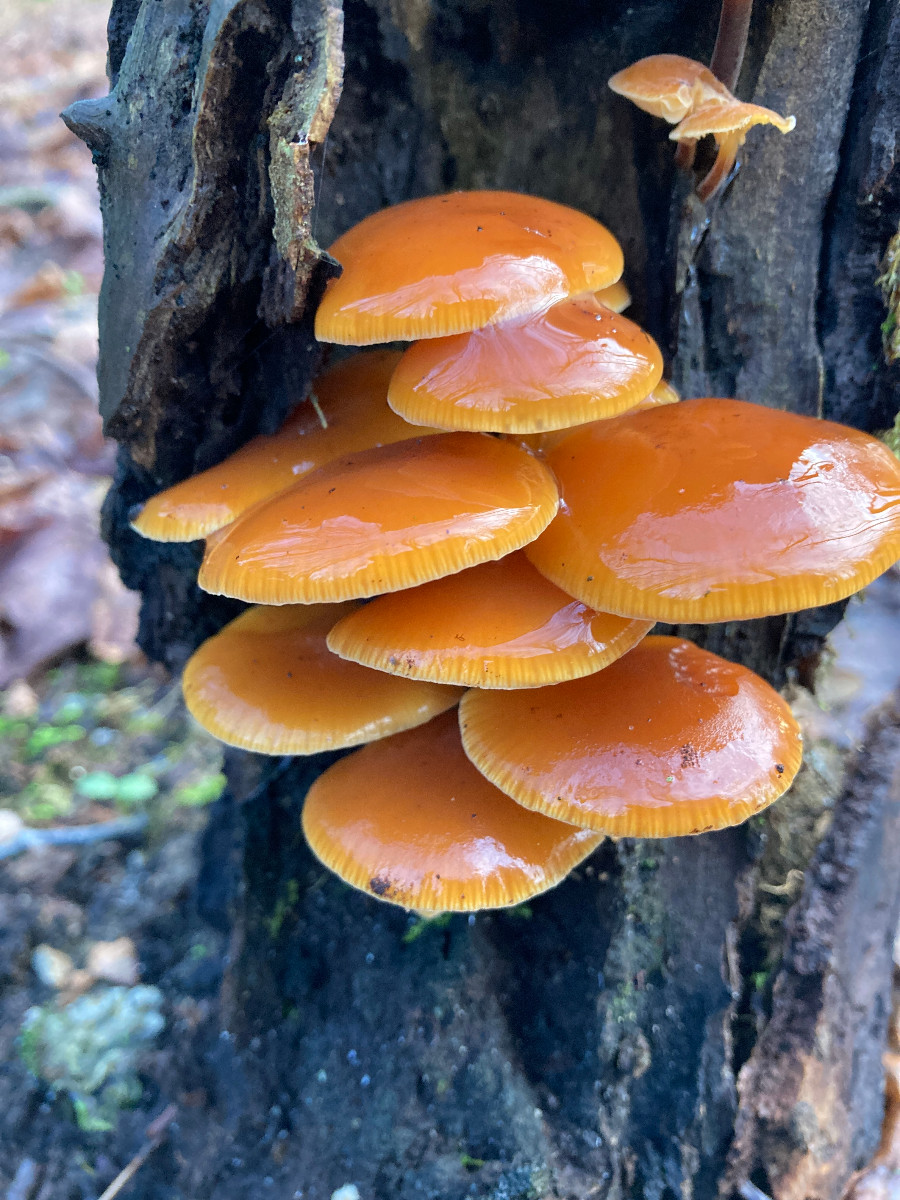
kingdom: Fungi
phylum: Basidiomycota
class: Agaricomycetes
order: Agaricales
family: Physalacriaceae
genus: Flammulina
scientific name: Flammulina velutipes
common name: gul fløjlsfod
